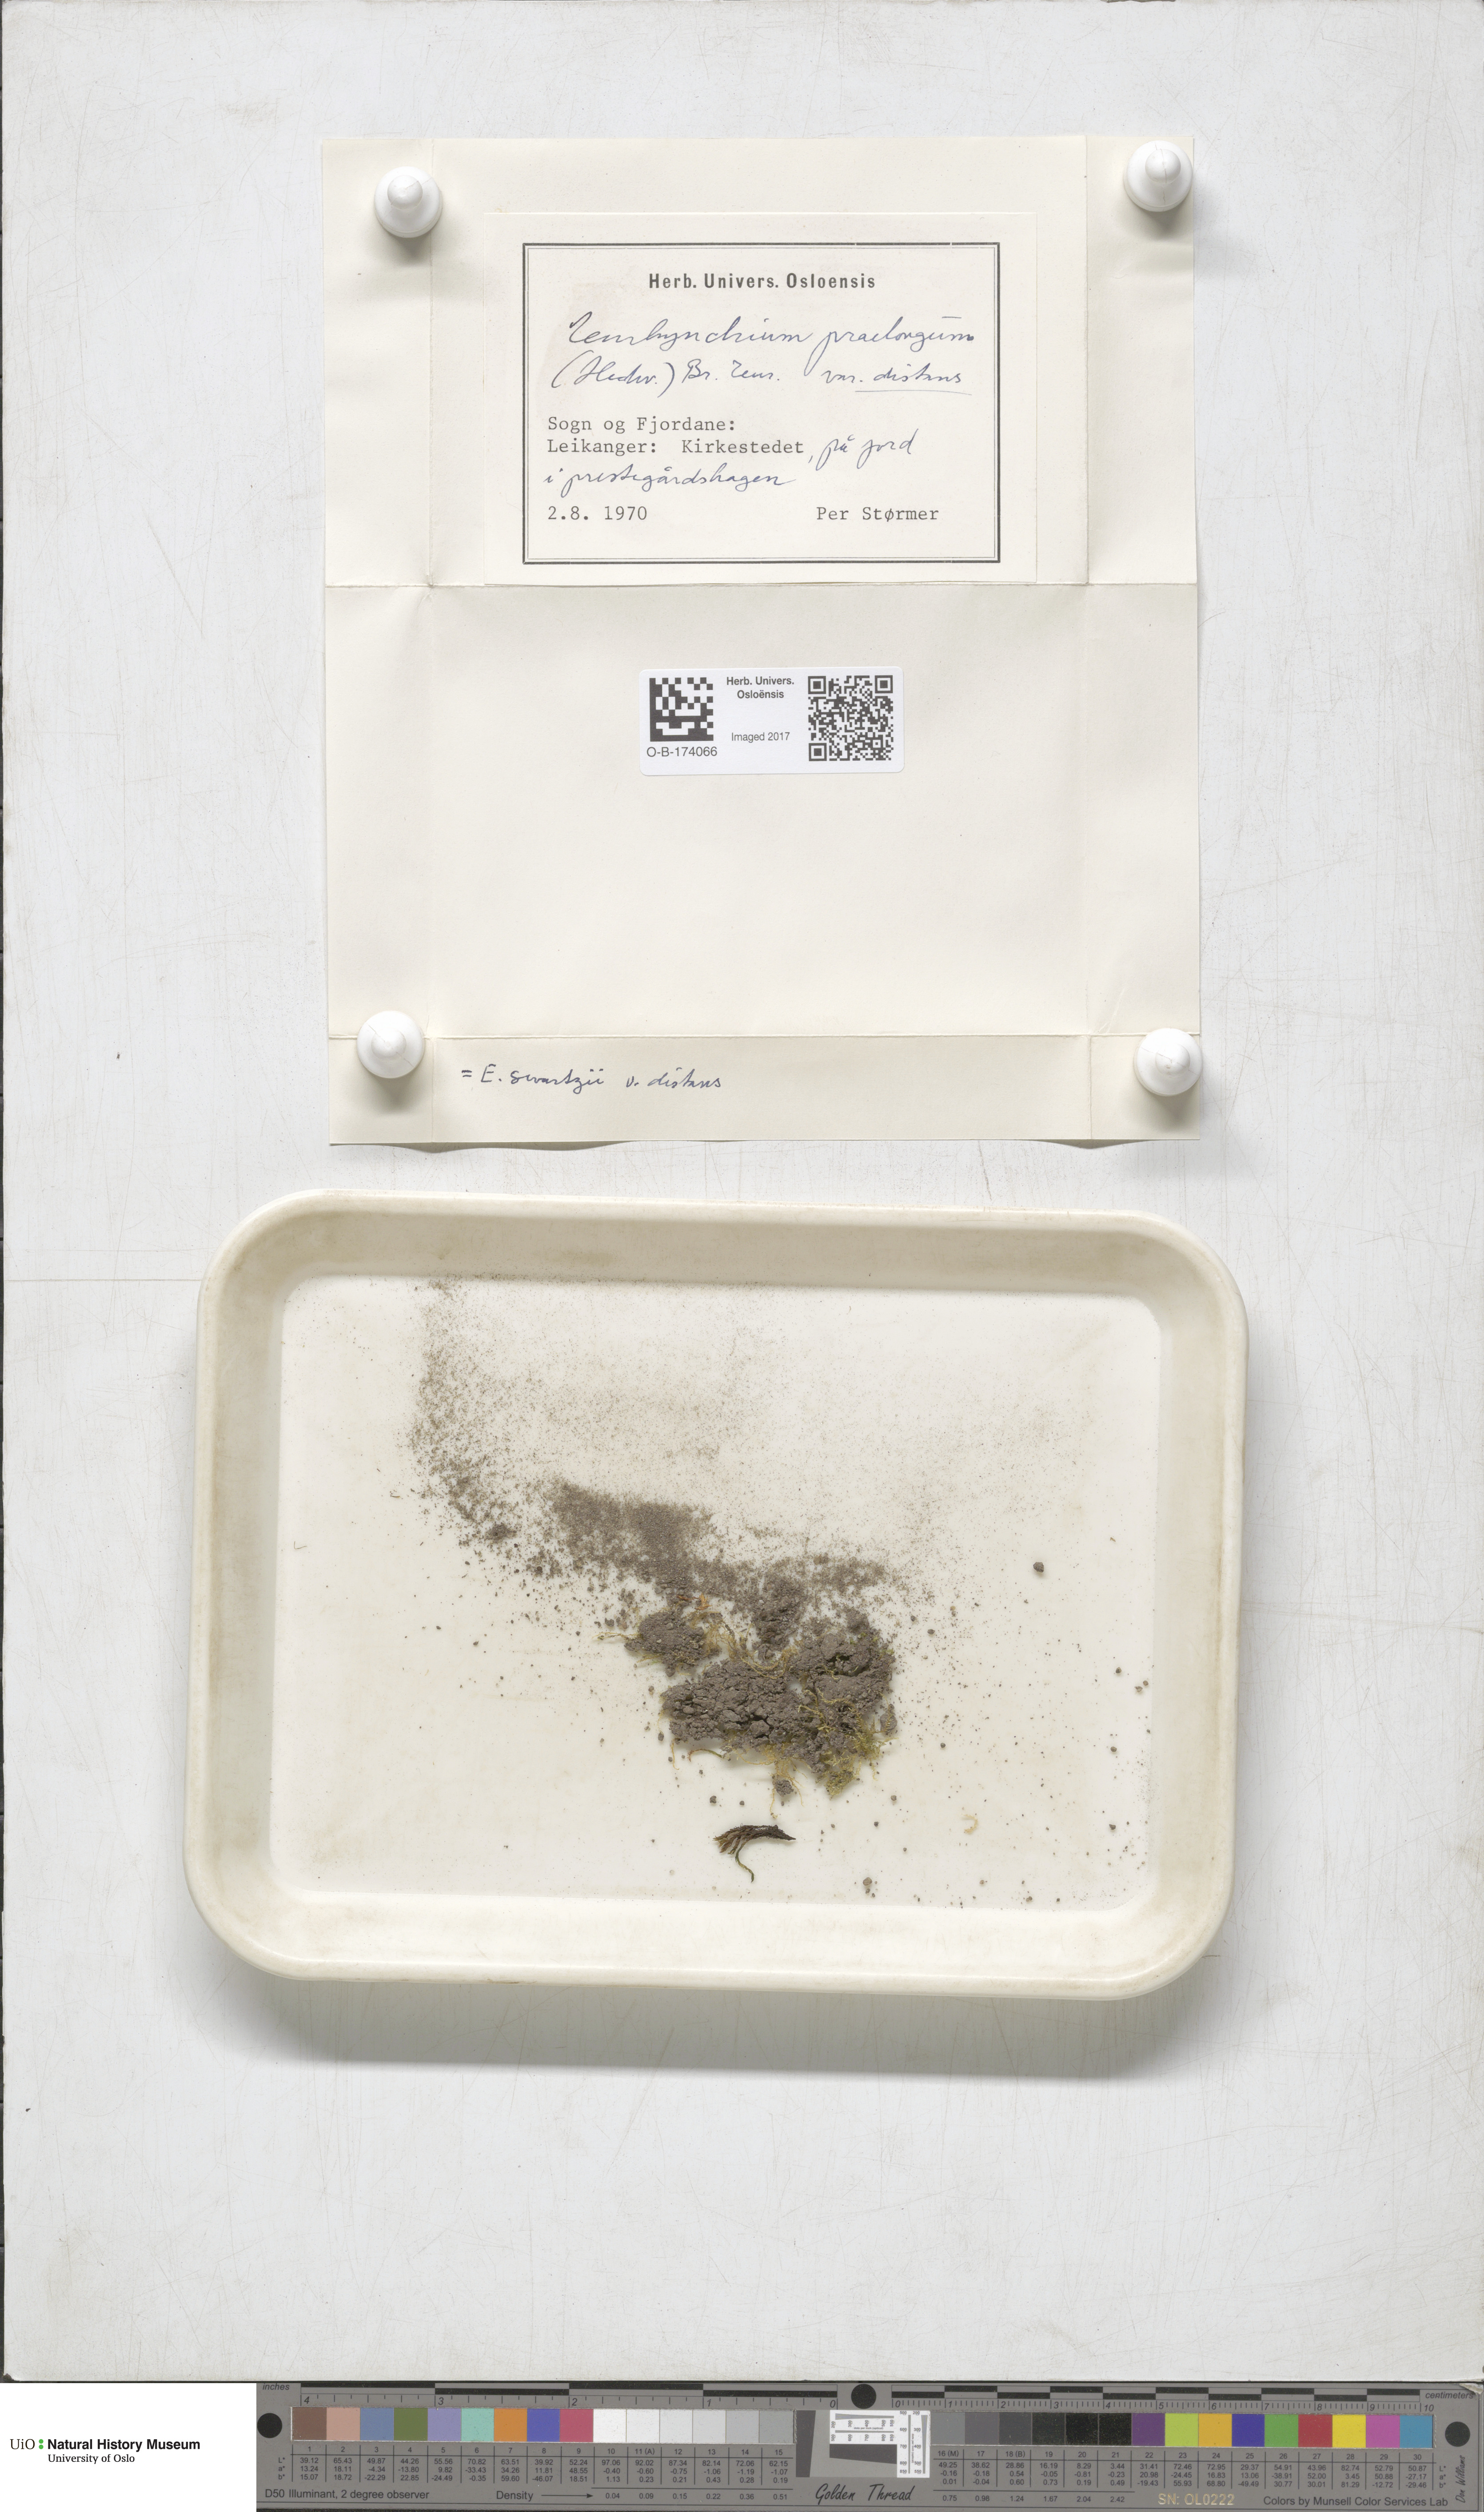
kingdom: Plantae
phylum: Bryophyta
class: Bryopsida
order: Hypnales
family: Brachytheciaceae
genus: Oxyrrhynchium
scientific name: Oxyrrhynchium hians
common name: Spreading beaked moss
